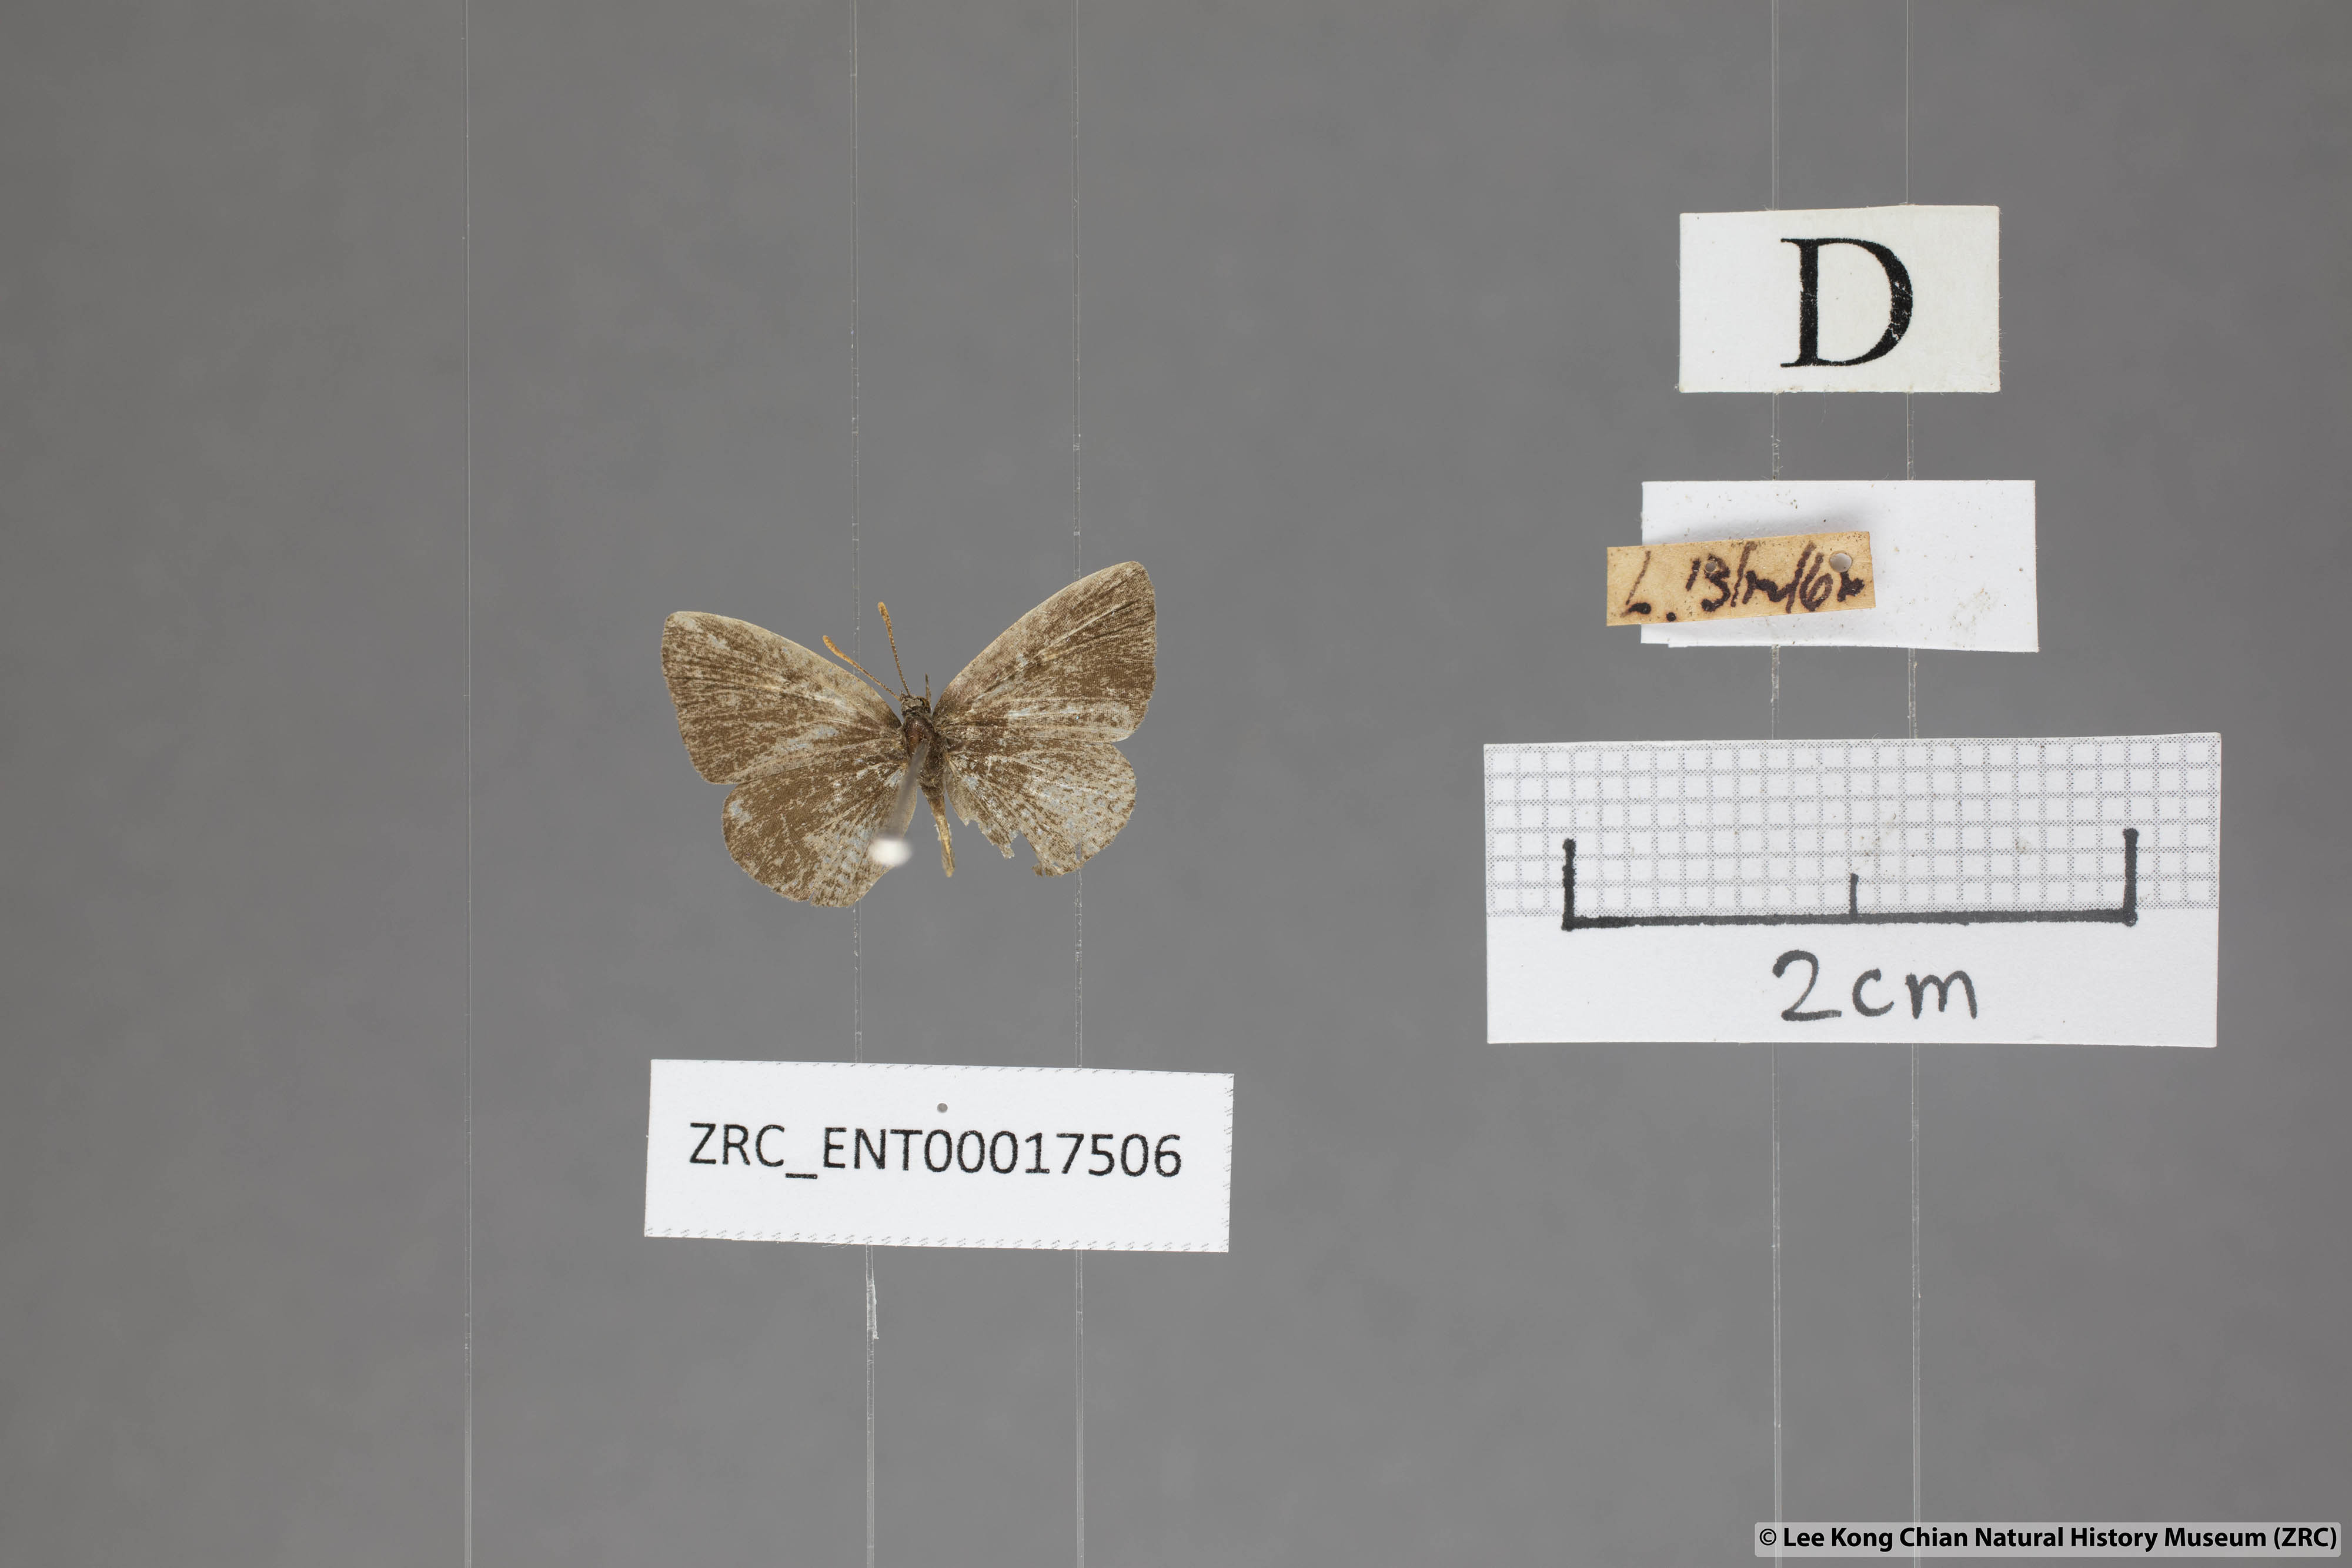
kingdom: Animalia
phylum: Arthropoda
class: Insecta
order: Lepidoptera
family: Lycaenidae
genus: Spalgis
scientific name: Spalgis epeus
